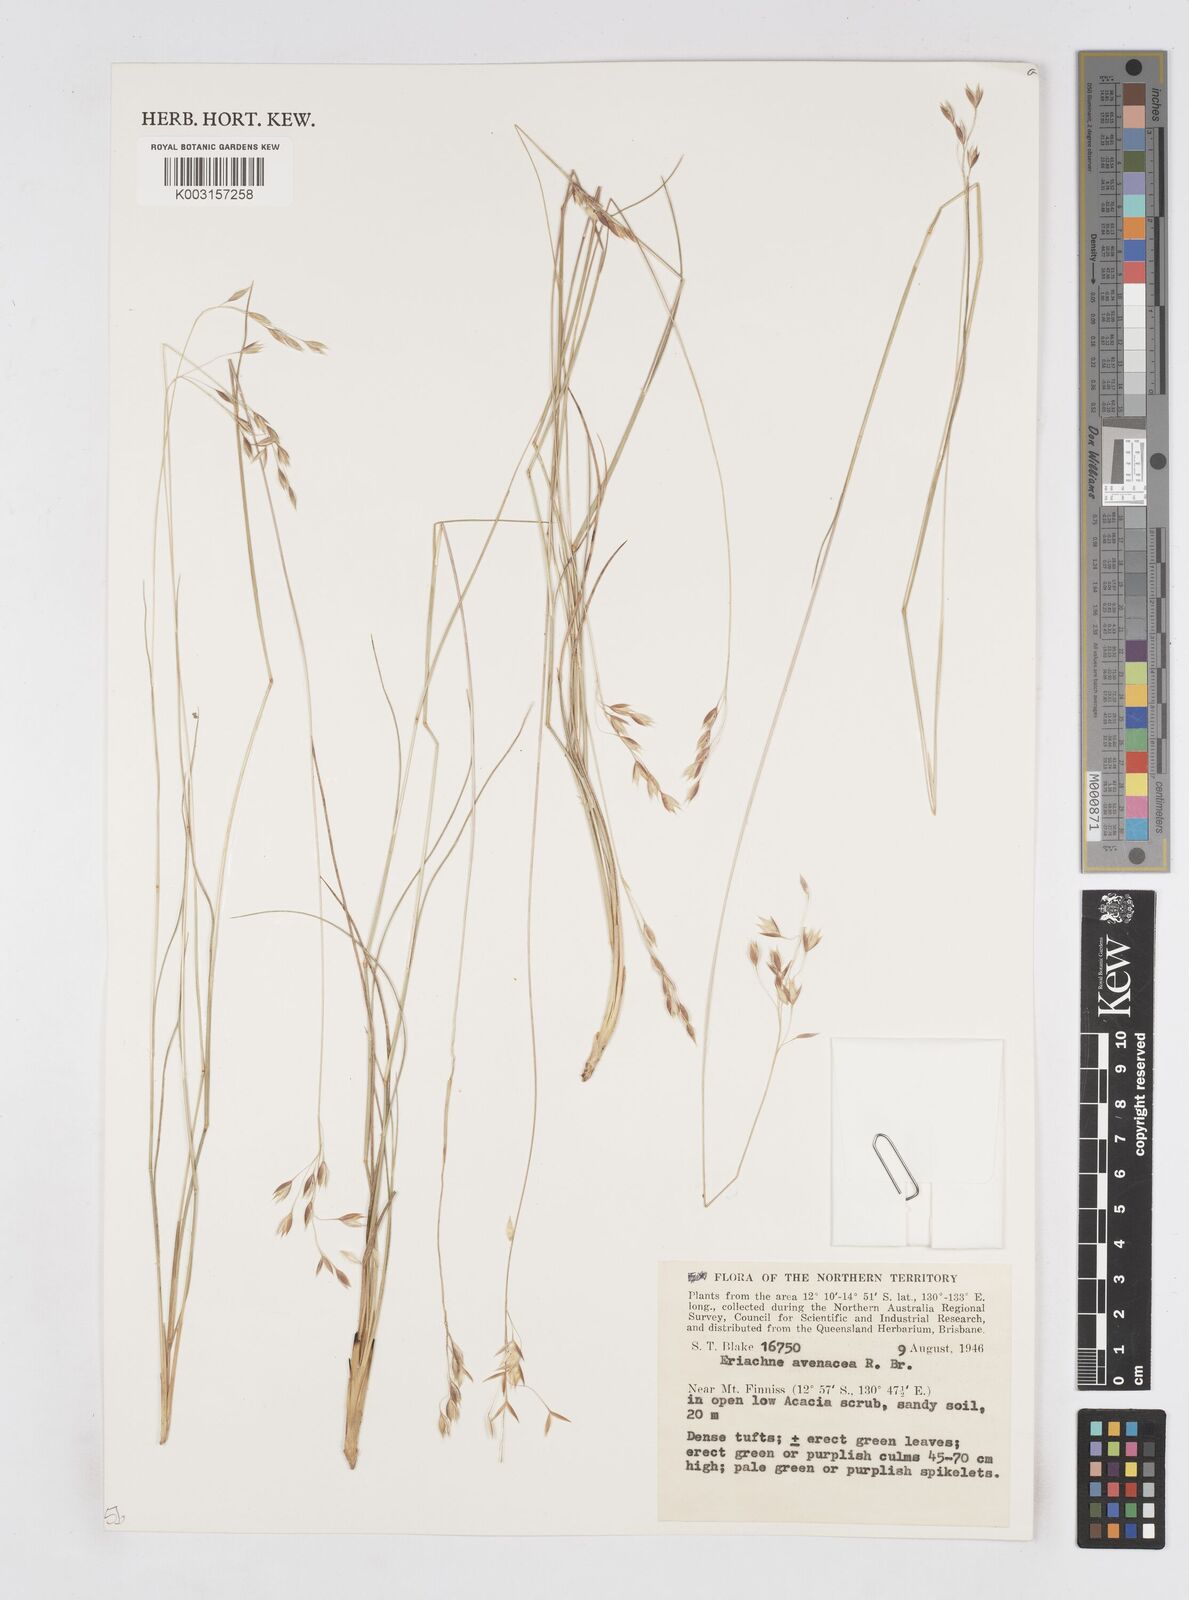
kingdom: Plantae
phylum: Tracheophyta
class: Liliopsida
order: Poales
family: Poaceae
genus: Eriachne
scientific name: Eriachne avenacea
